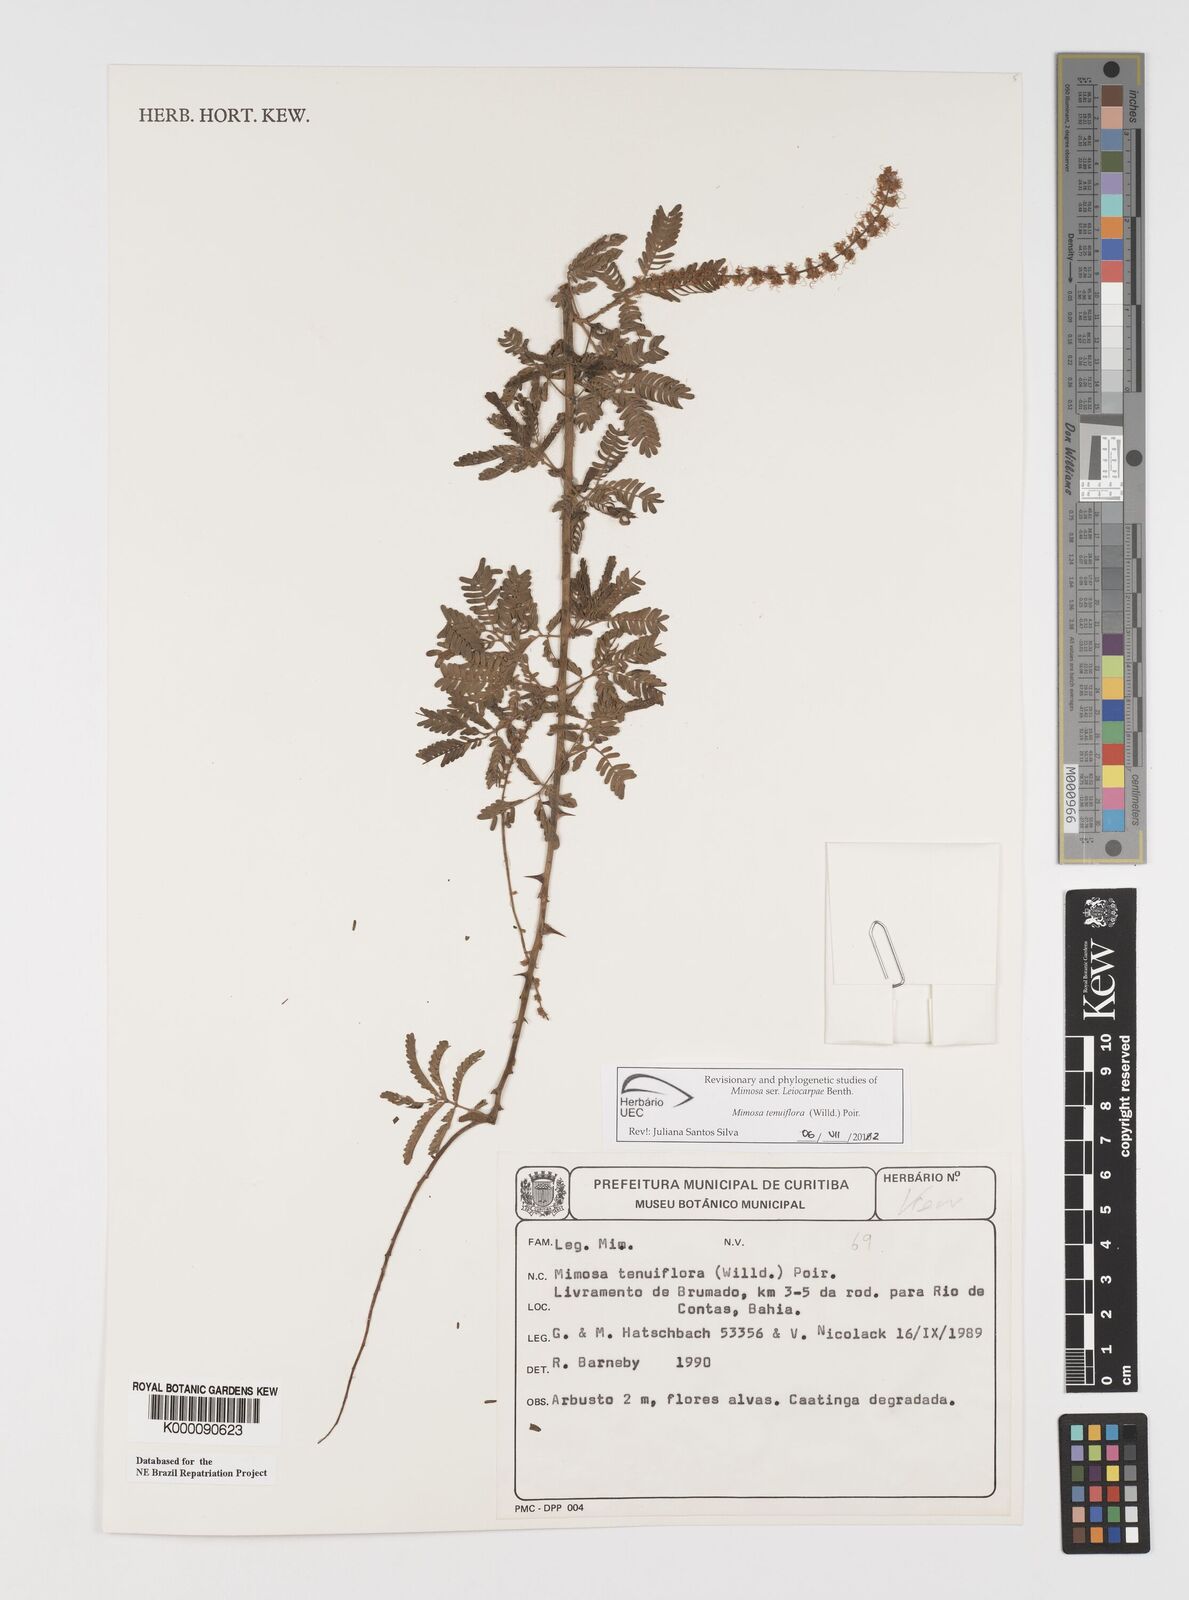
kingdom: Plantae
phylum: Tracheophyta
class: Magnoliopsida
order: Fabales
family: Fabaceae
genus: Mimosa
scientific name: Mimosa tenuiflora
